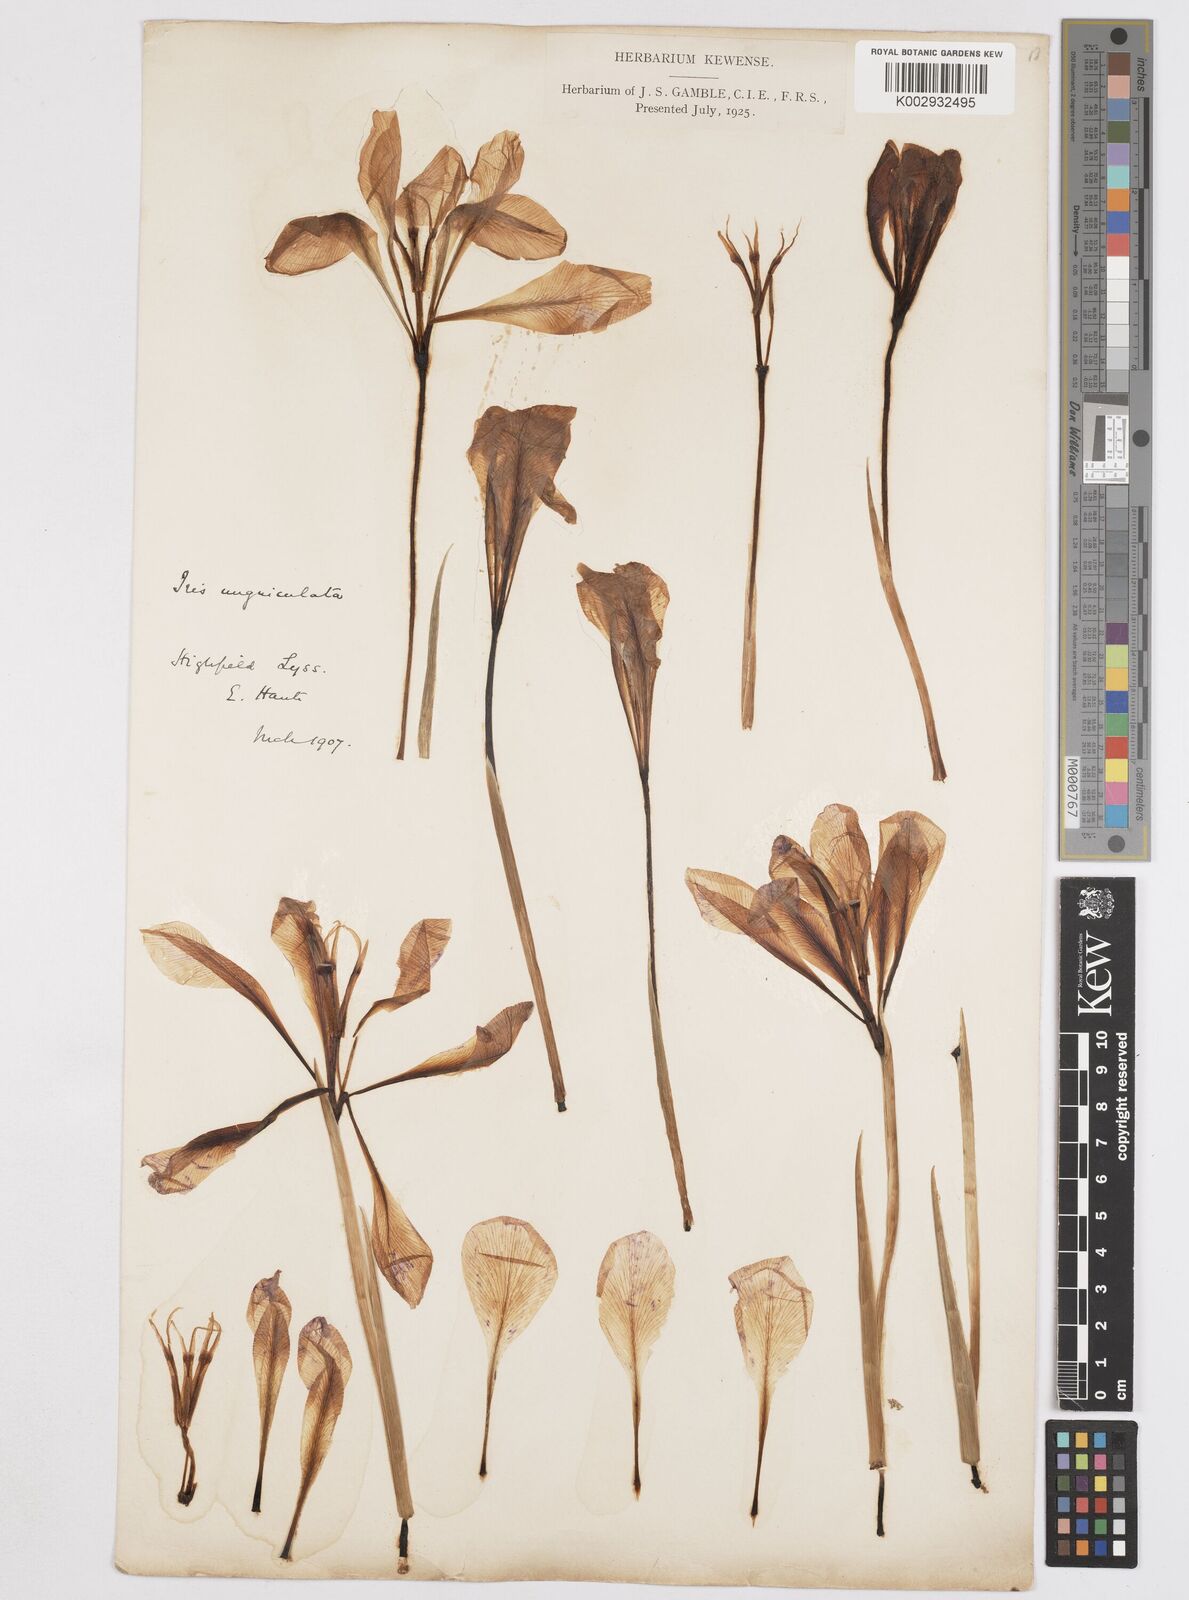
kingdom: Plantae
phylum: Tracheophyta
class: Liliopsida
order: Asparagales
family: Iridaceae
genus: Iris
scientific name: Iris unguicularis
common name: Algerian iris
